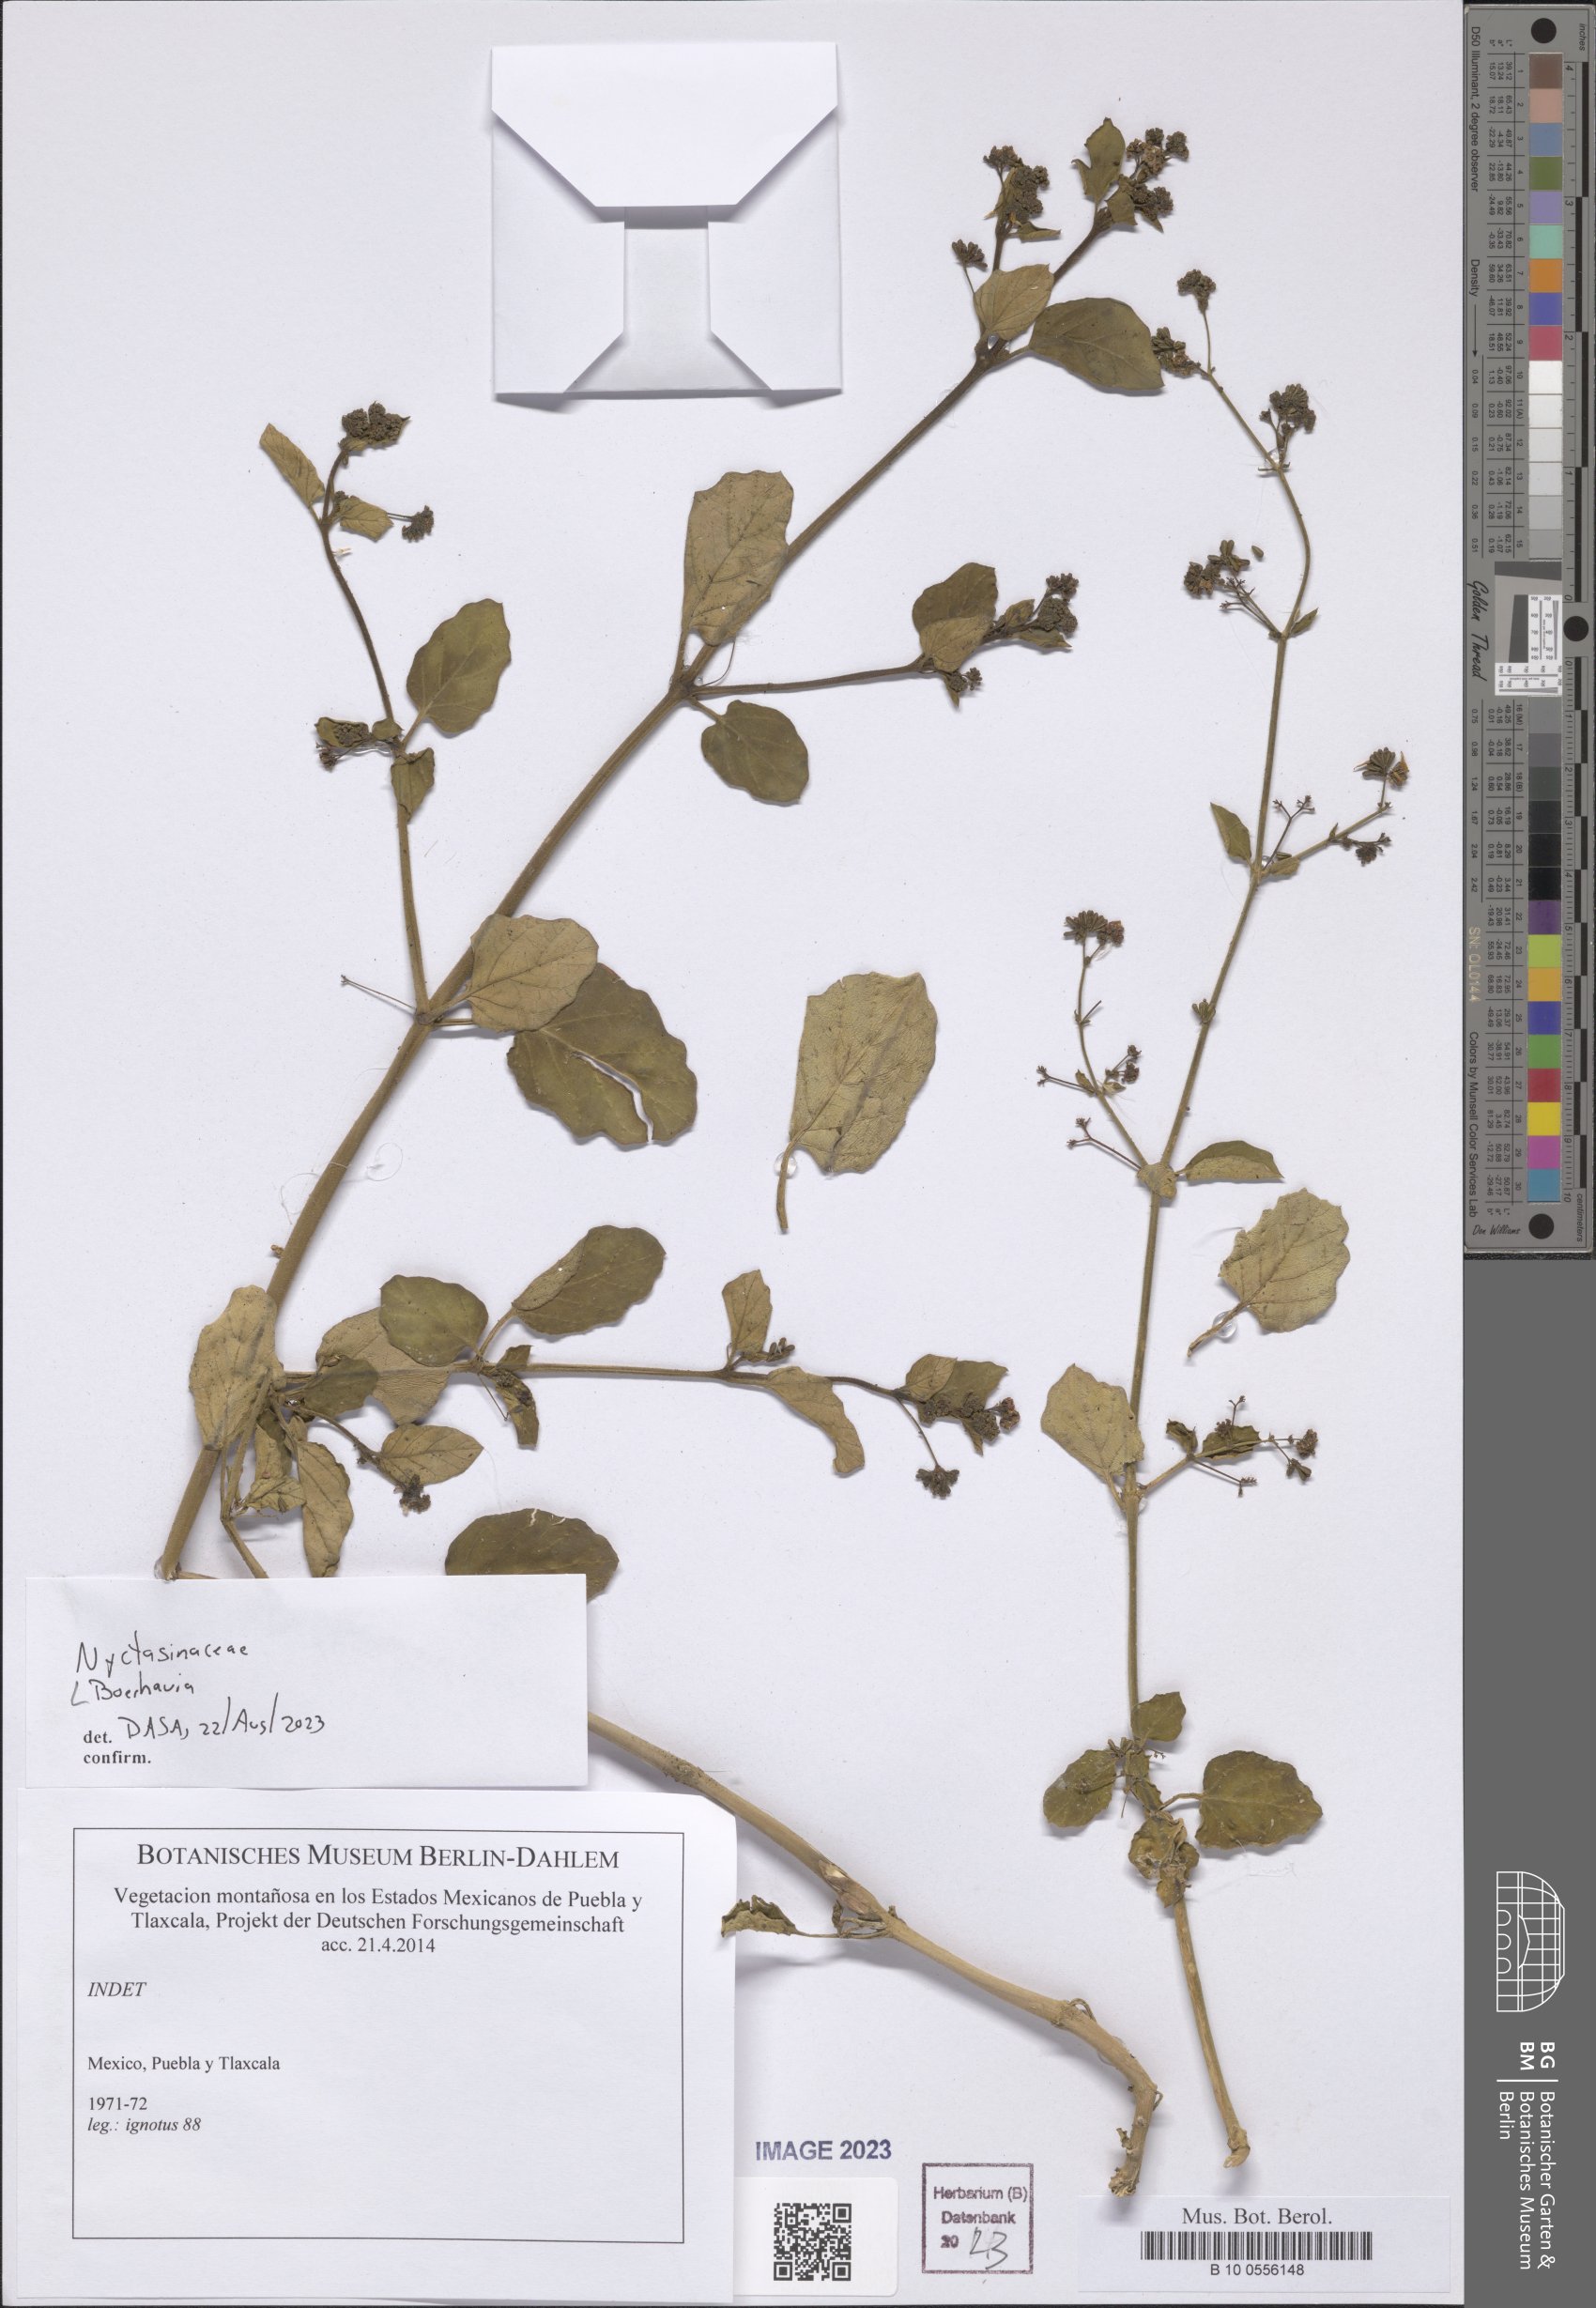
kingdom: Plantae
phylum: Tracheophyta
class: Magnoliopsida
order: Caryophyllales
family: Nyctaginaceae
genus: Boerhavia
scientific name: Boerhavia
